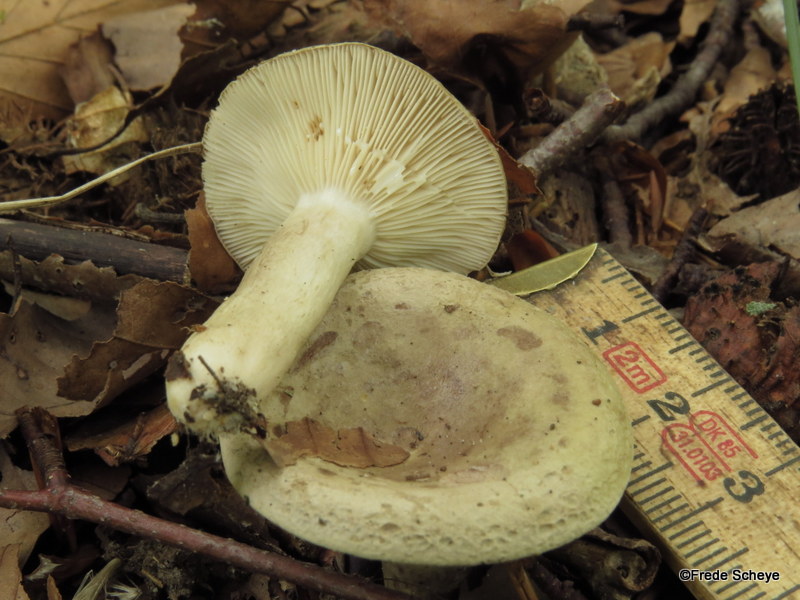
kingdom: Fungi
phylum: Basidiomycota
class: Agaricomycetes
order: Russulales
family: Russulaceae
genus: Lactarius
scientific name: Lactarius blennius
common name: dråbeplettet mælkehat
